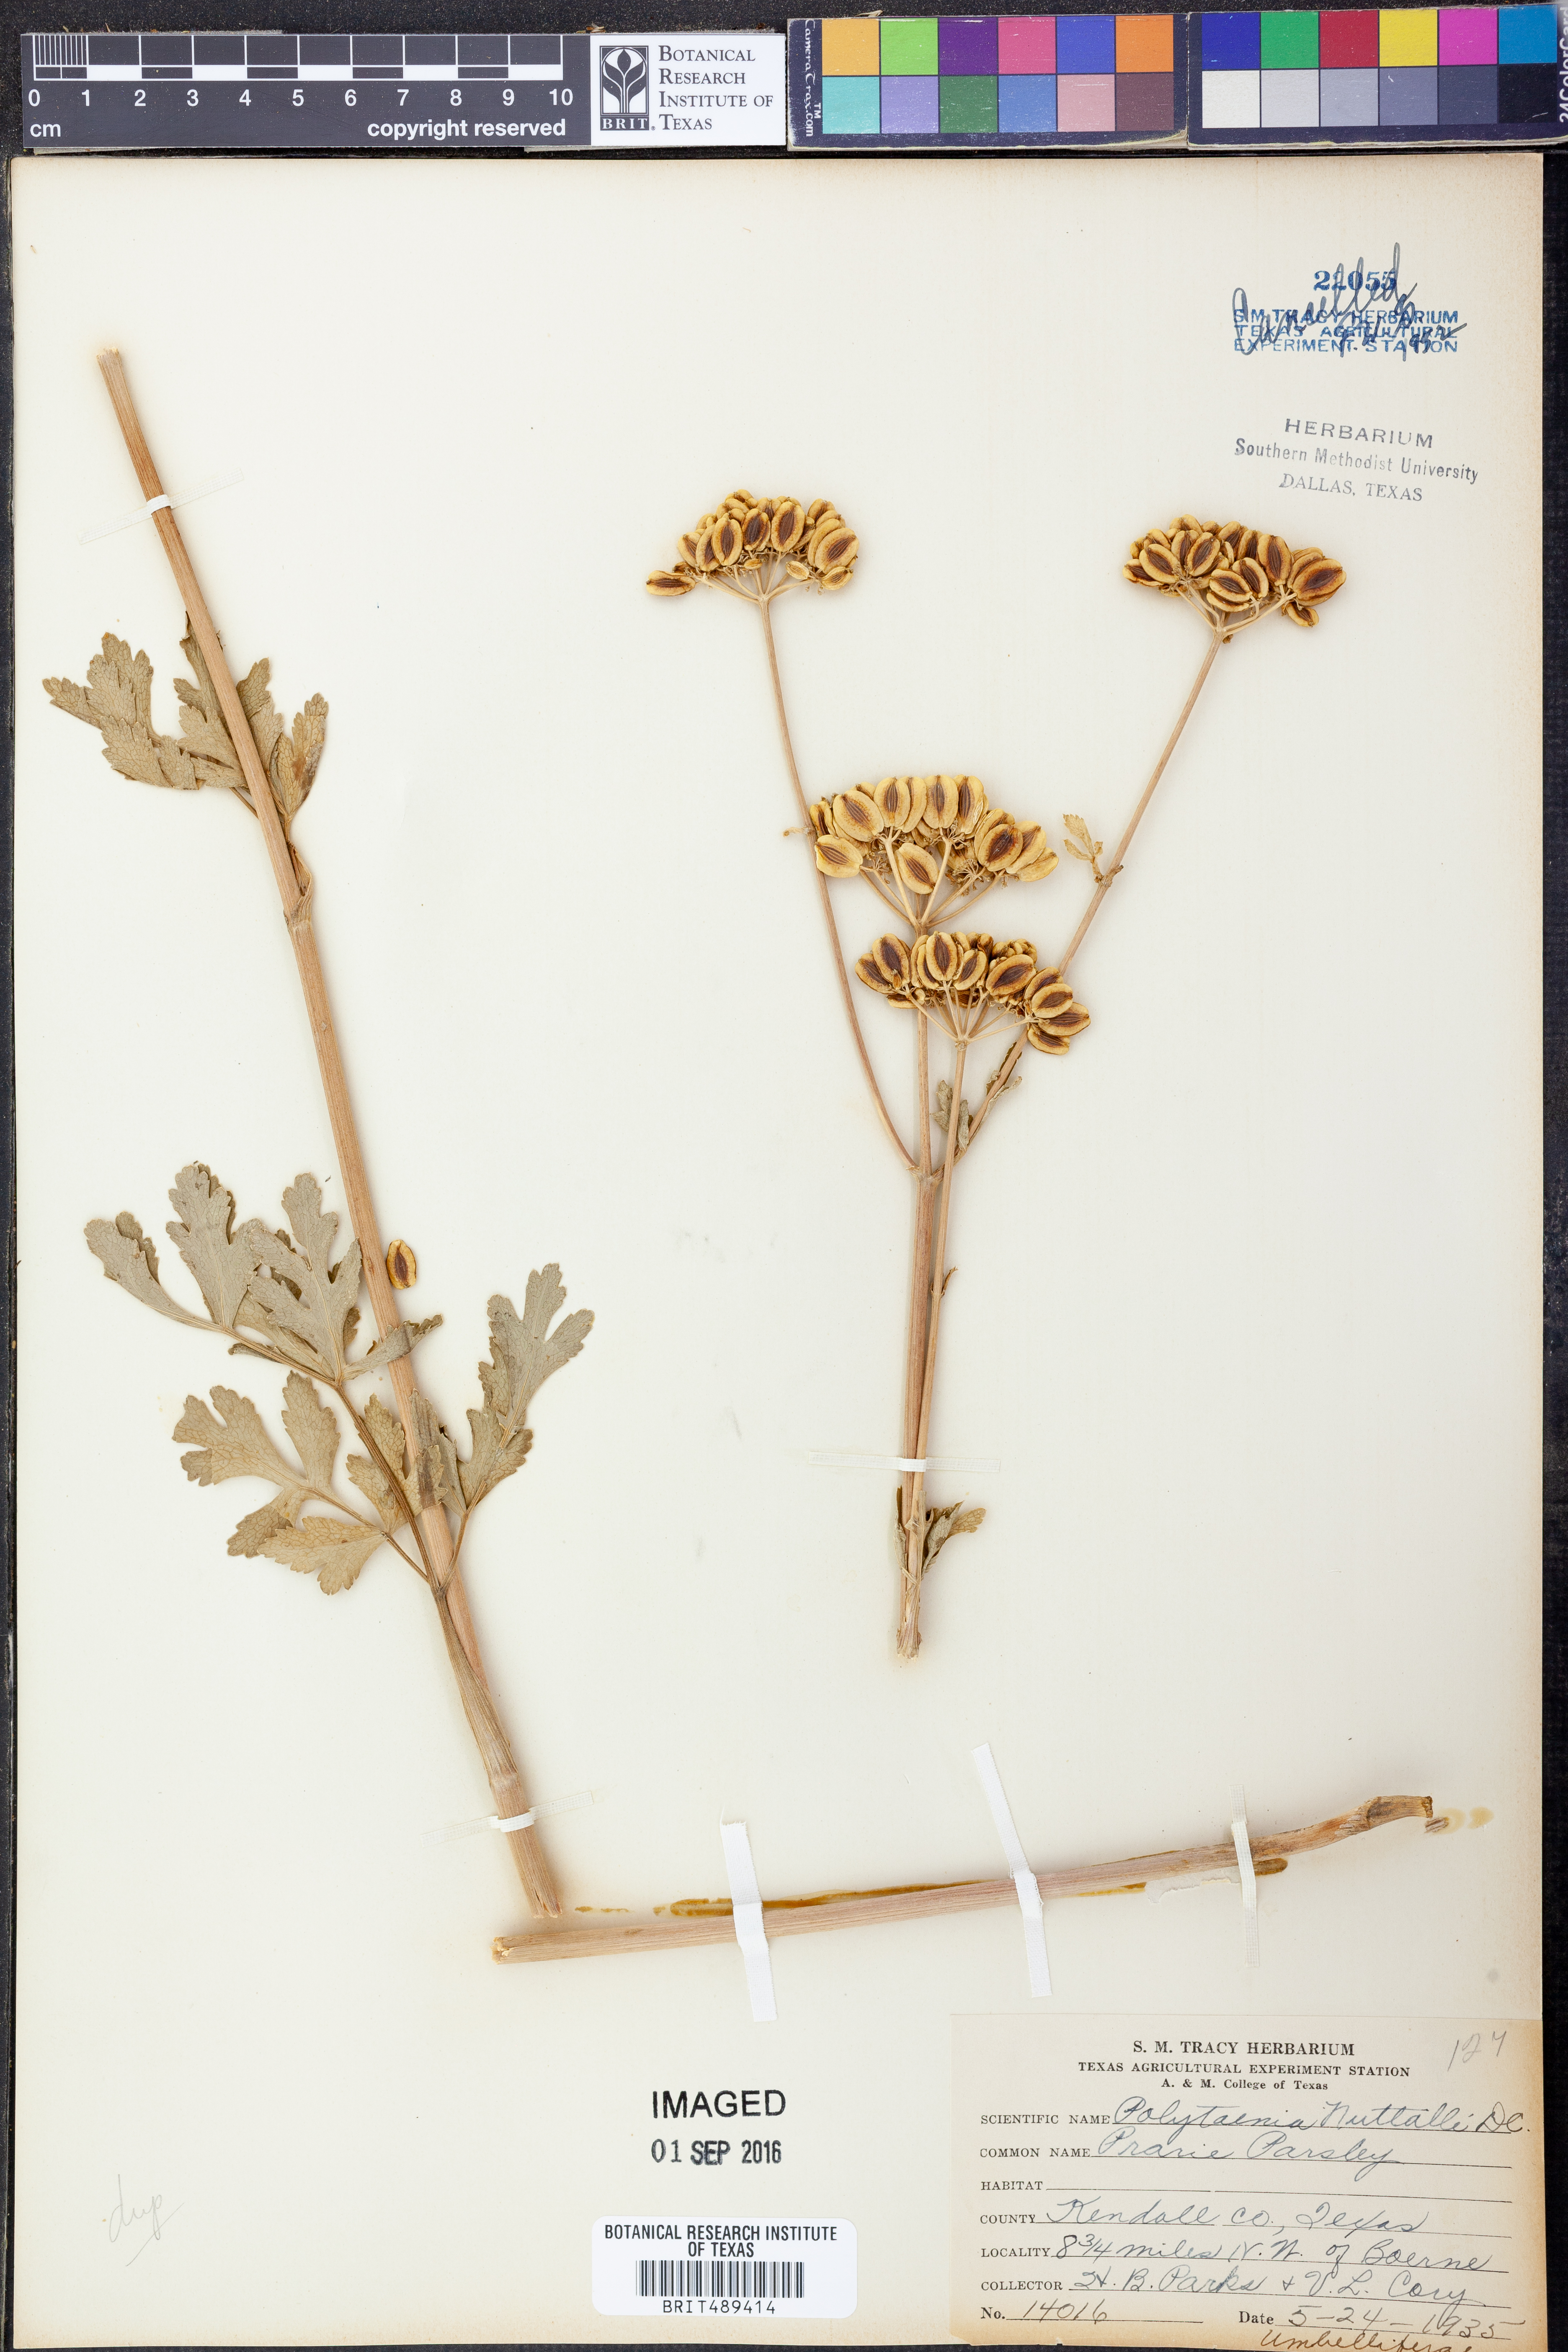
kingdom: Plantae
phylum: Tracheophyta
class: Magnoliopsida
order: Apiales
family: Apiaceae
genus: Polytaenia
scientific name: Polytaenia albiflora
